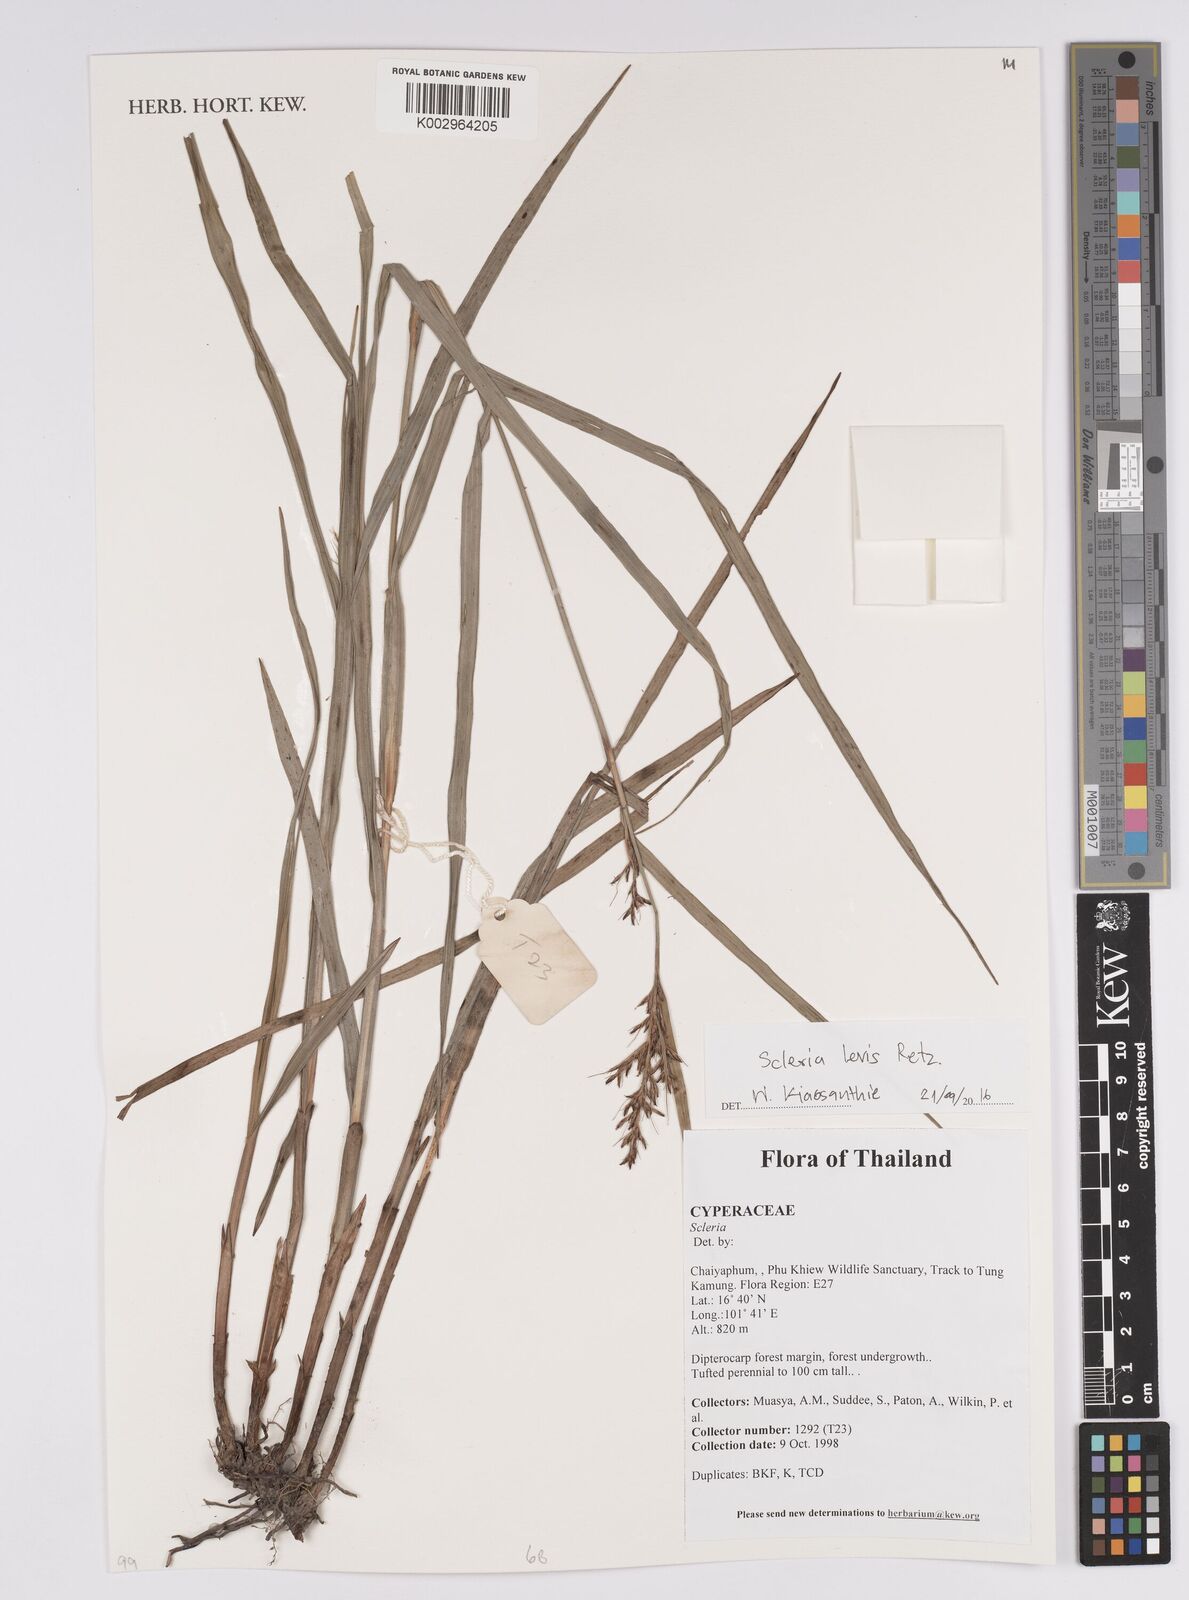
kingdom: Plantae
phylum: Tracheophyta
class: Liliopsida
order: Poales
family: Cyperaceae
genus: Scleria
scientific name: Scleria levis
